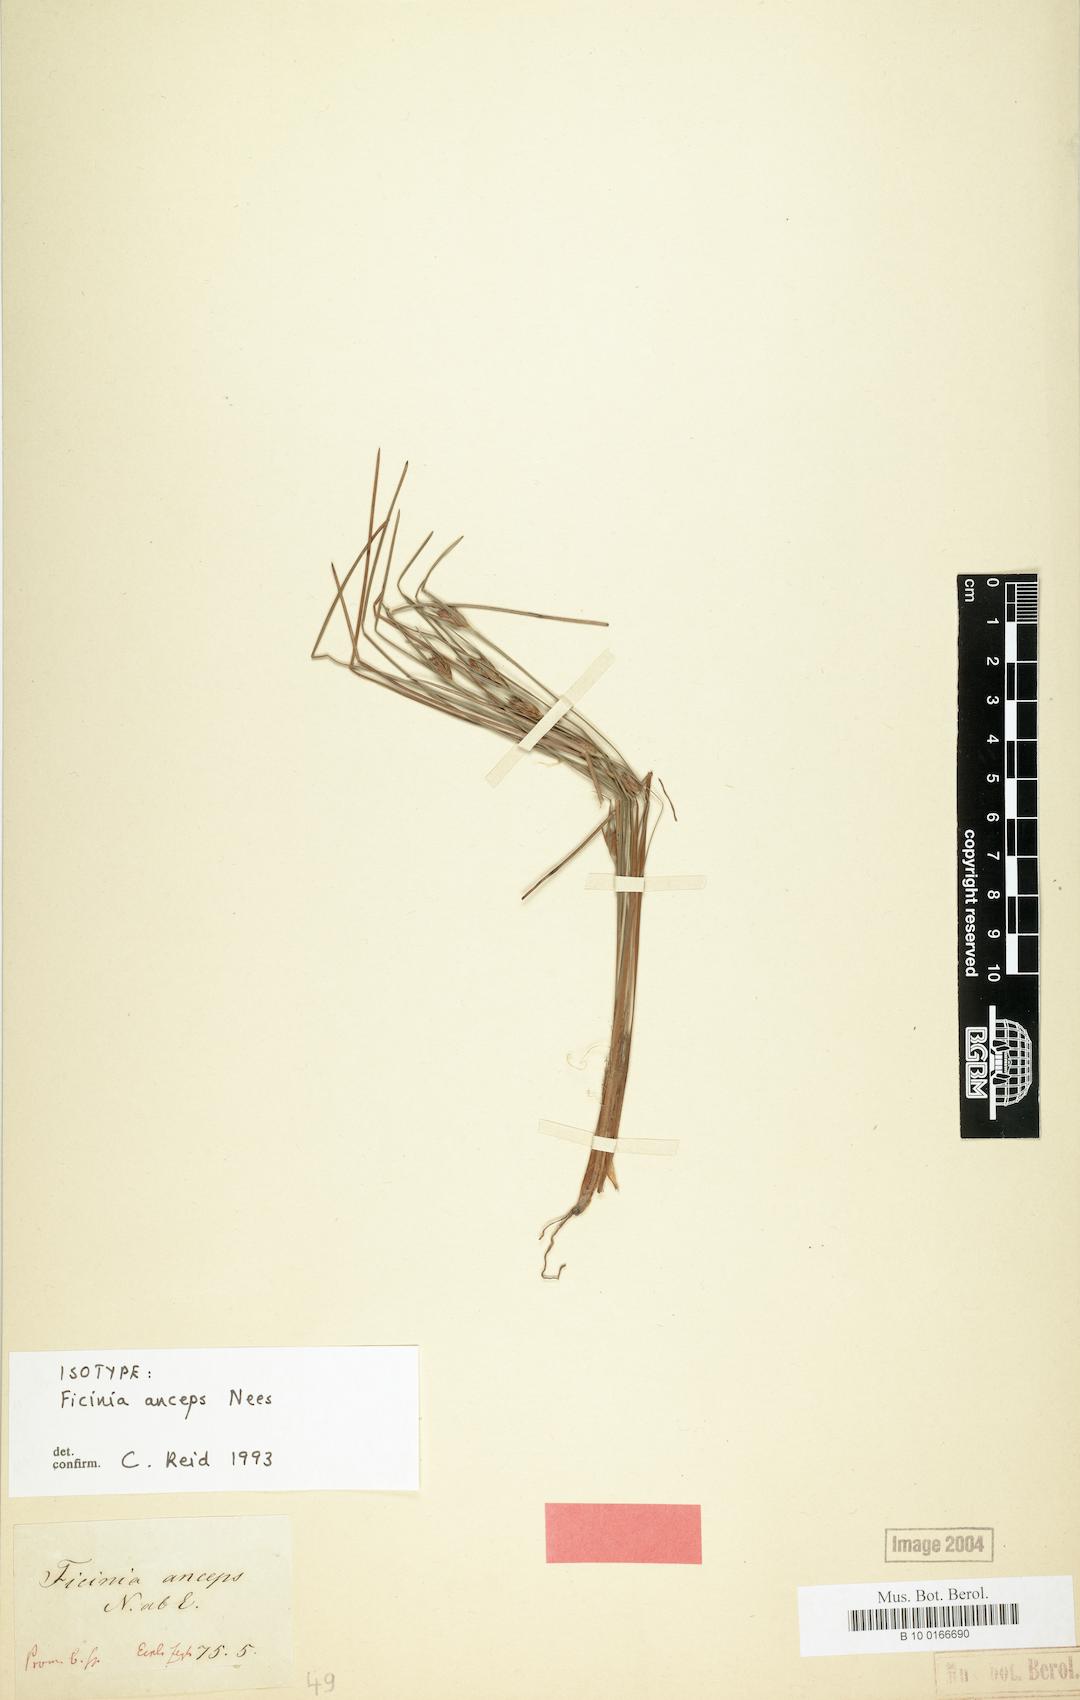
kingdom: Plantae
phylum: Tracheophyta
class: Liliopsida
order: Poales
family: Cyperaceae
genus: Ficinia
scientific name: Ficinia anceps
